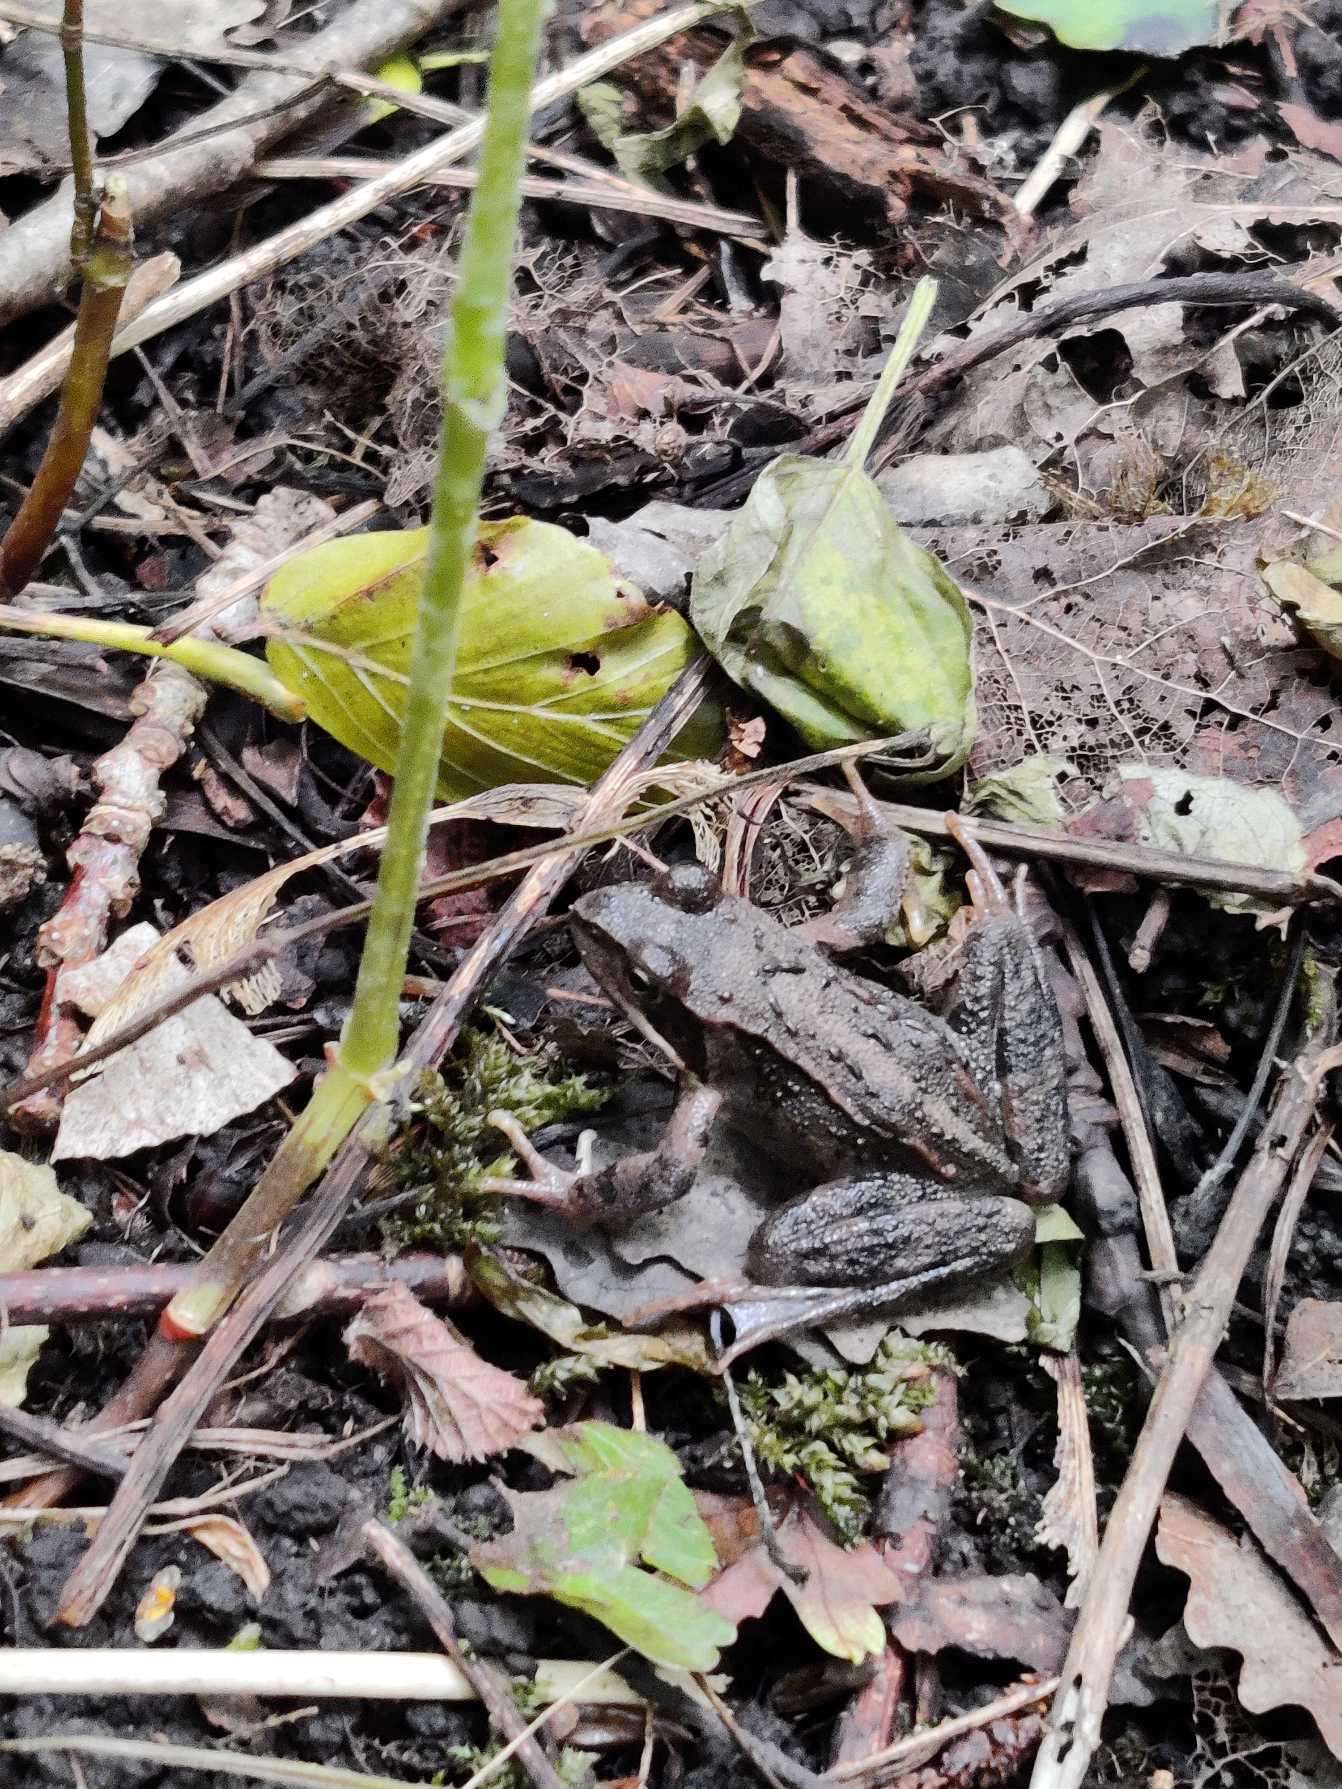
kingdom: Animalia
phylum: Chordata
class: Amphibia
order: Anura
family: Ranidae
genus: Rana
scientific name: Rana temporaria
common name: Butsnudet frø
